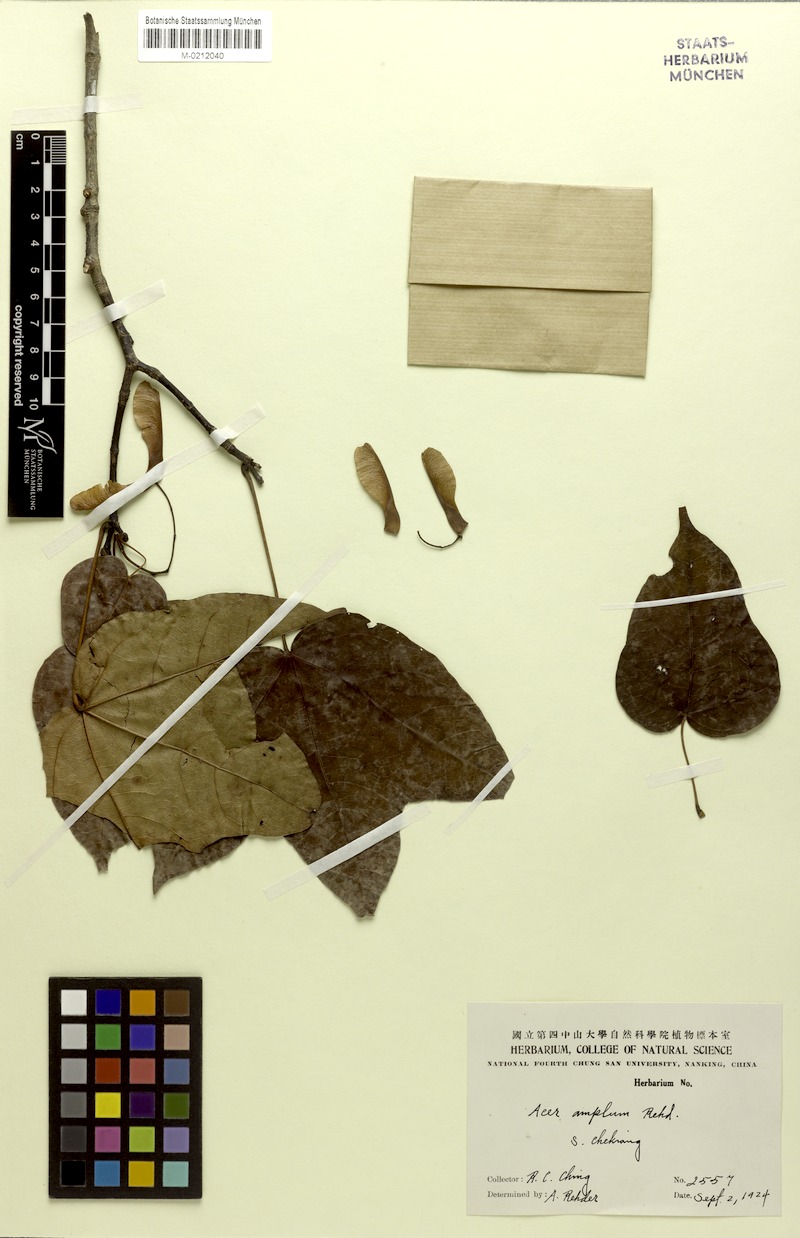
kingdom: Plantae
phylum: Tracheophyta
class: Magnoliopsida
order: Sapindales
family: Sapindaceae
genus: Acer
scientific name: Acer amplum
